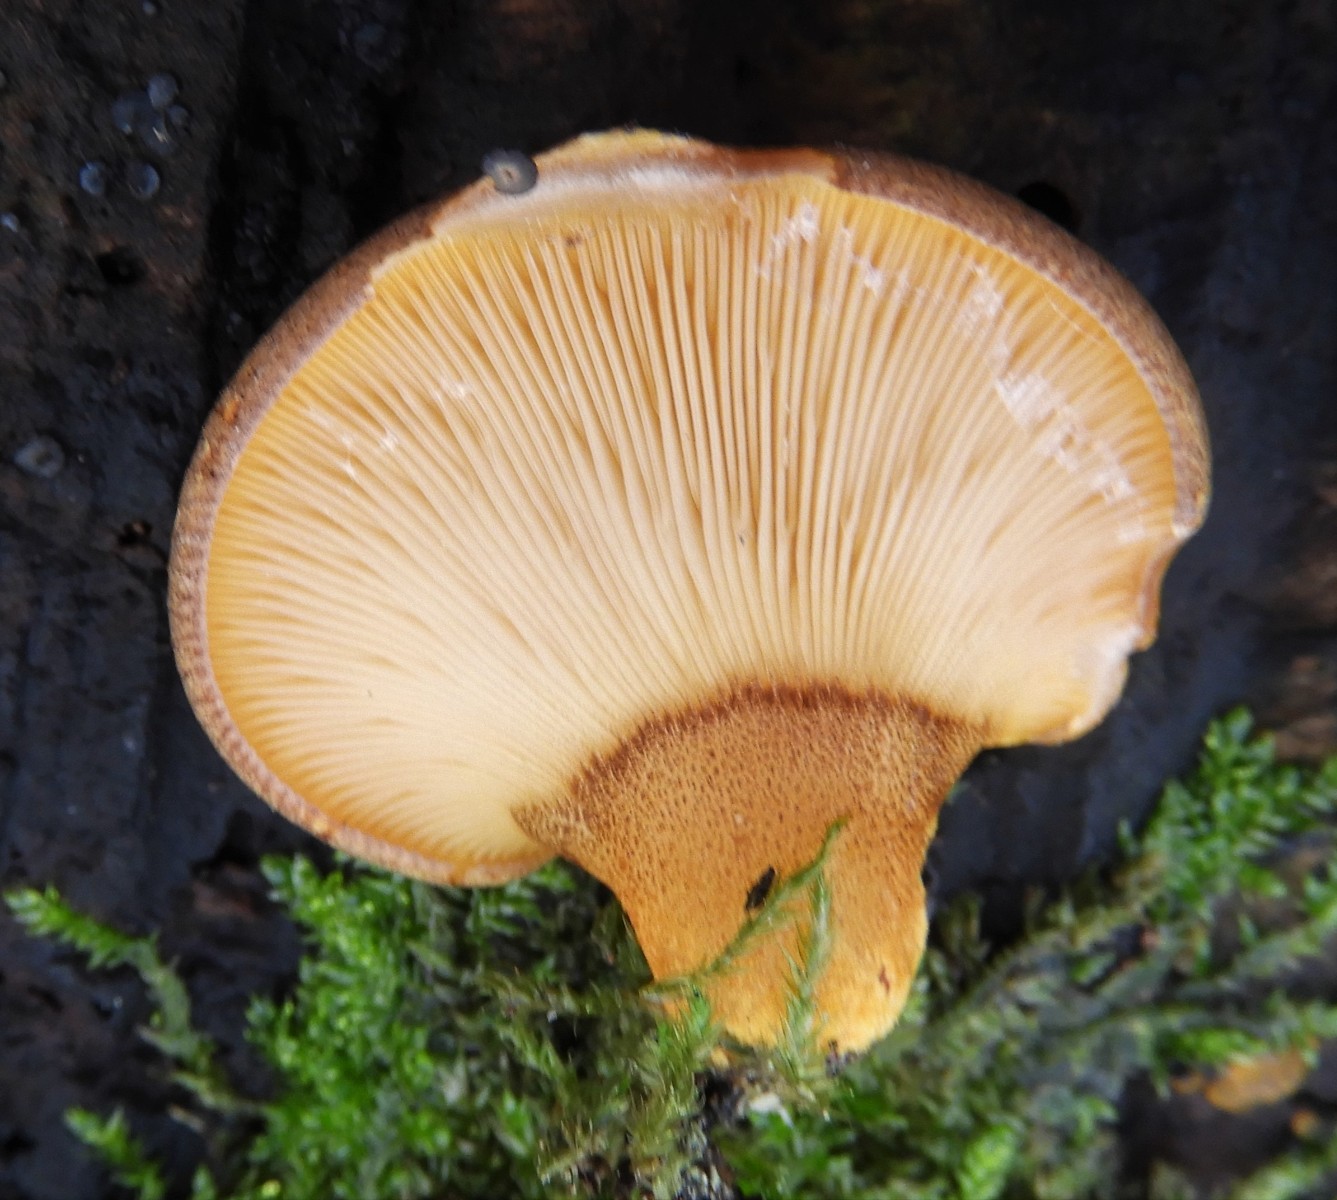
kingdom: Fungi
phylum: Basidiomycota
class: Agaricomycetes
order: Agaricales
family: Sarcomyxaceae
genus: Sarcomyxa
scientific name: Sarcomyxa serotina
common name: gummihat
